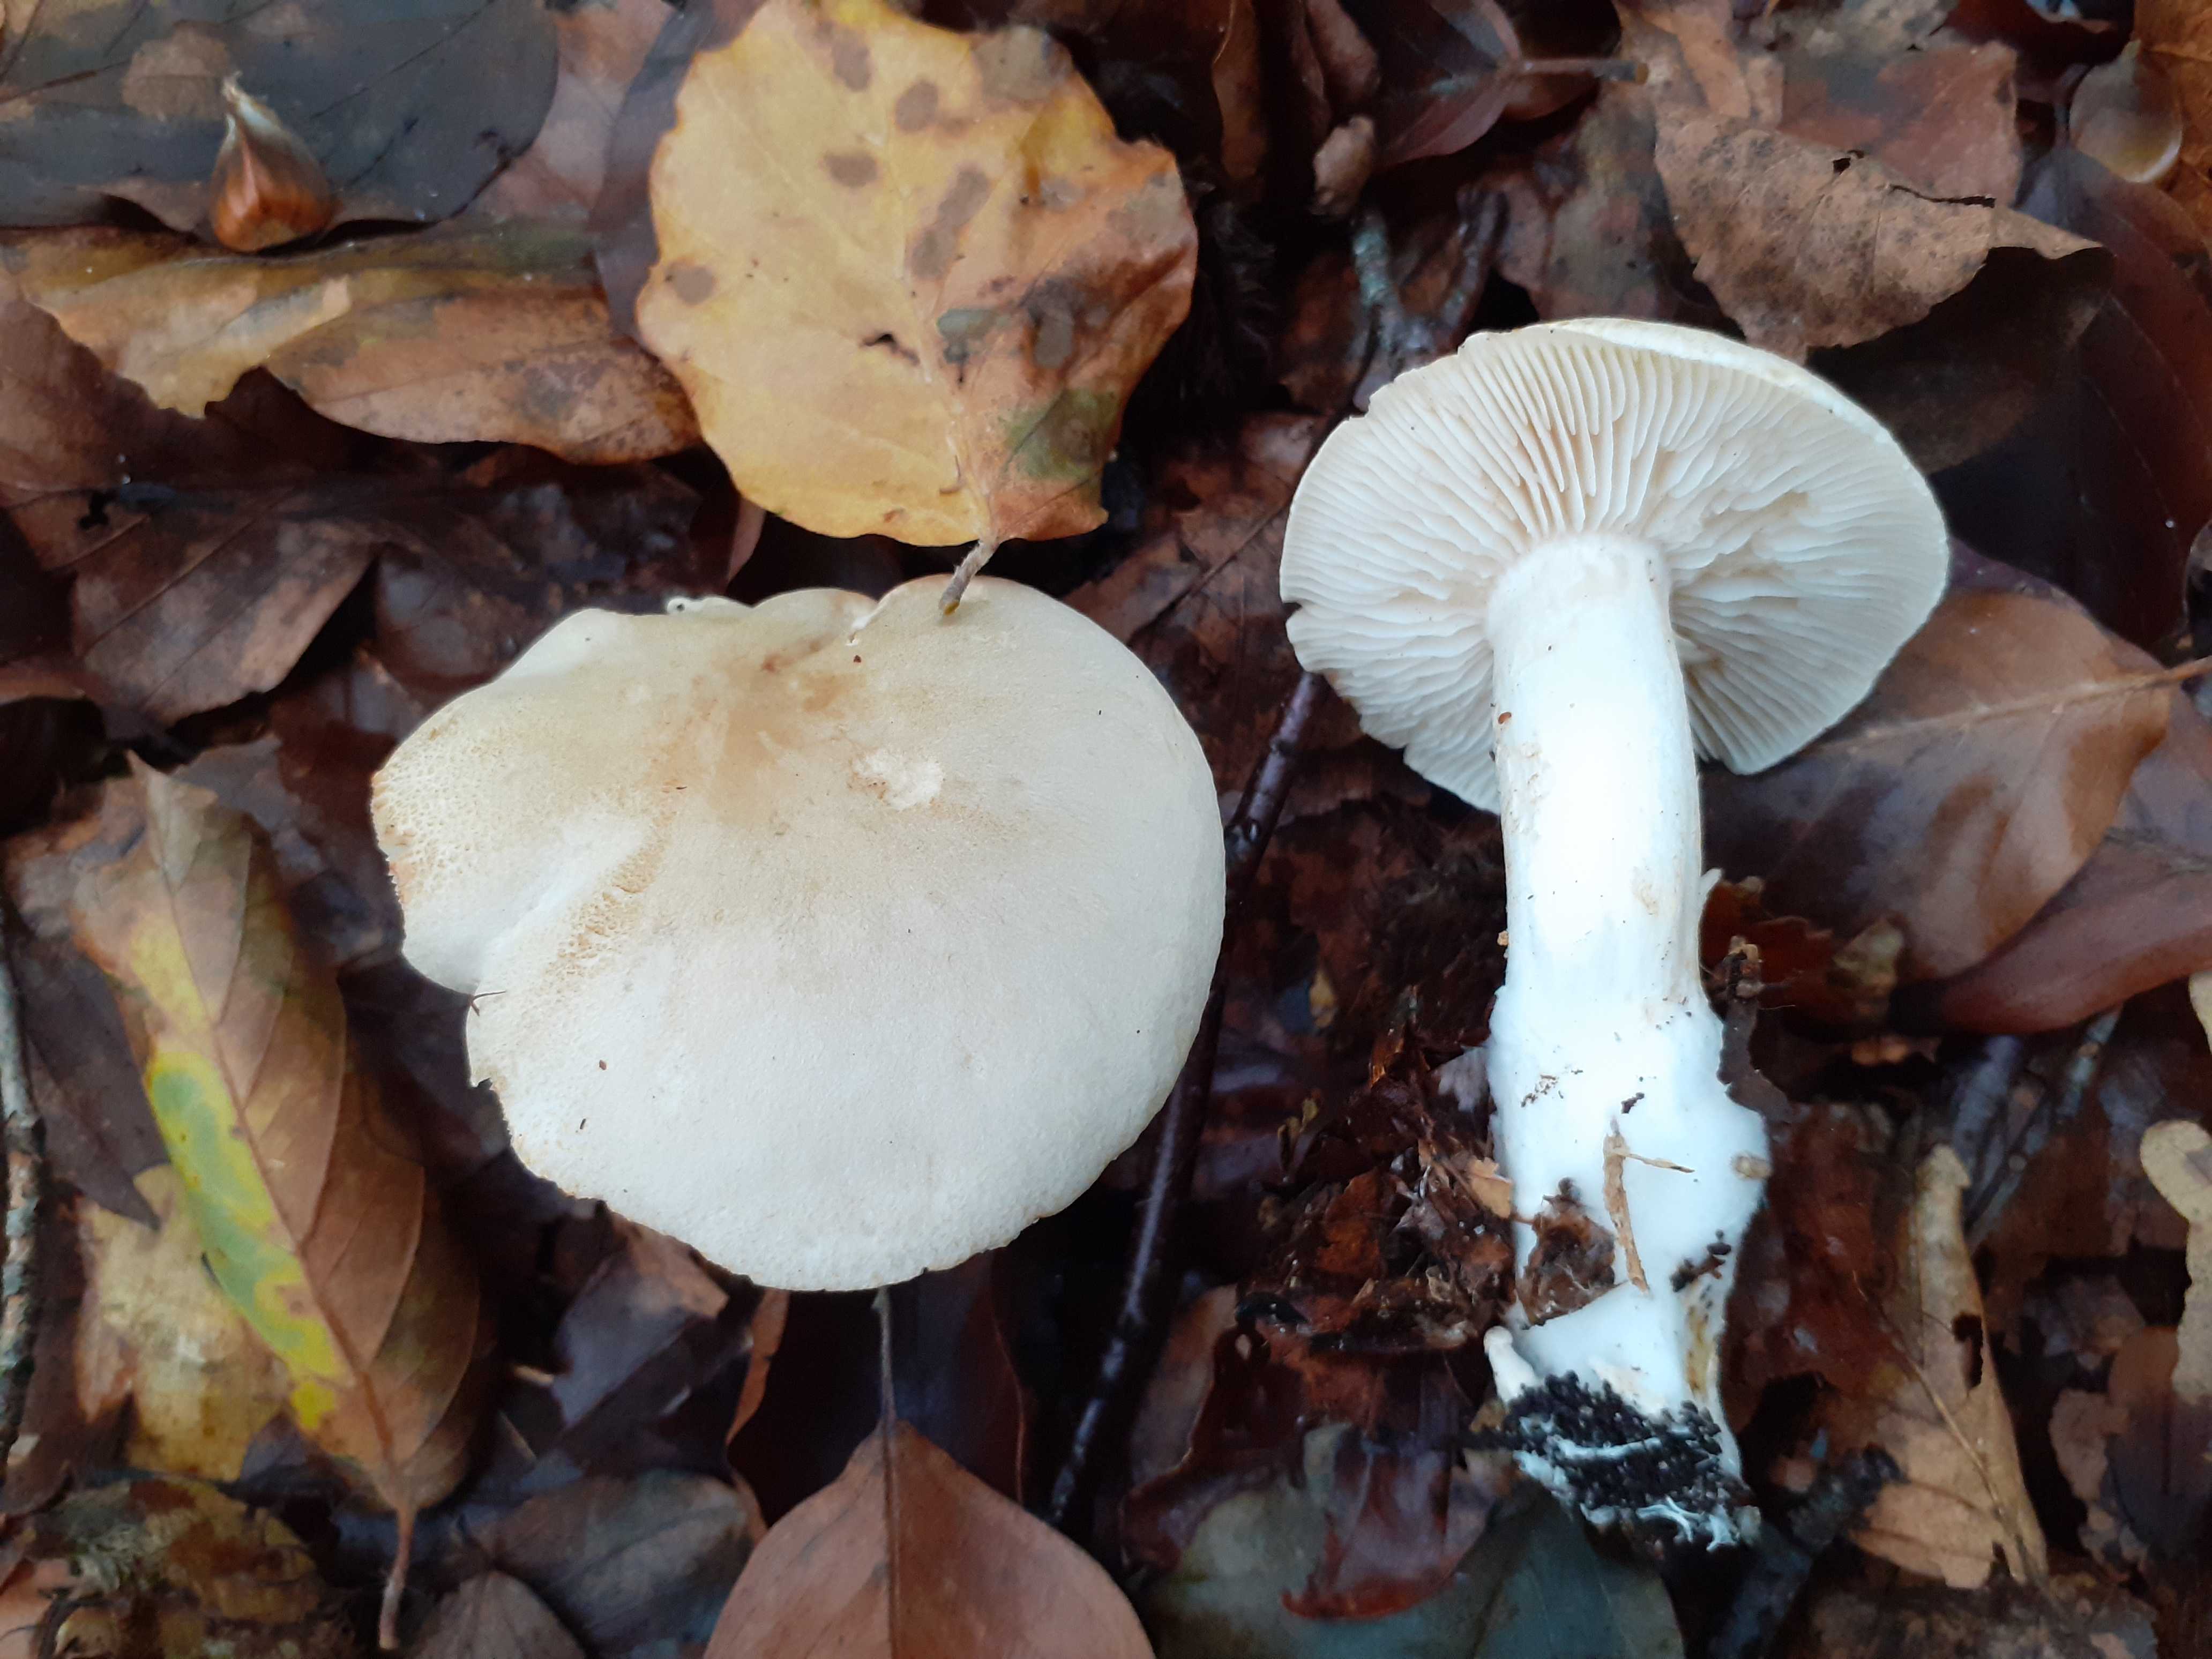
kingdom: Fungi
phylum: Basidiomycota
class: Agaricomycetes
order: Agaricales
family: Tricholomataceae
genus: Tricholoma
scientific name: Tricholoma lascivum
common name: stinkende ridderhat
